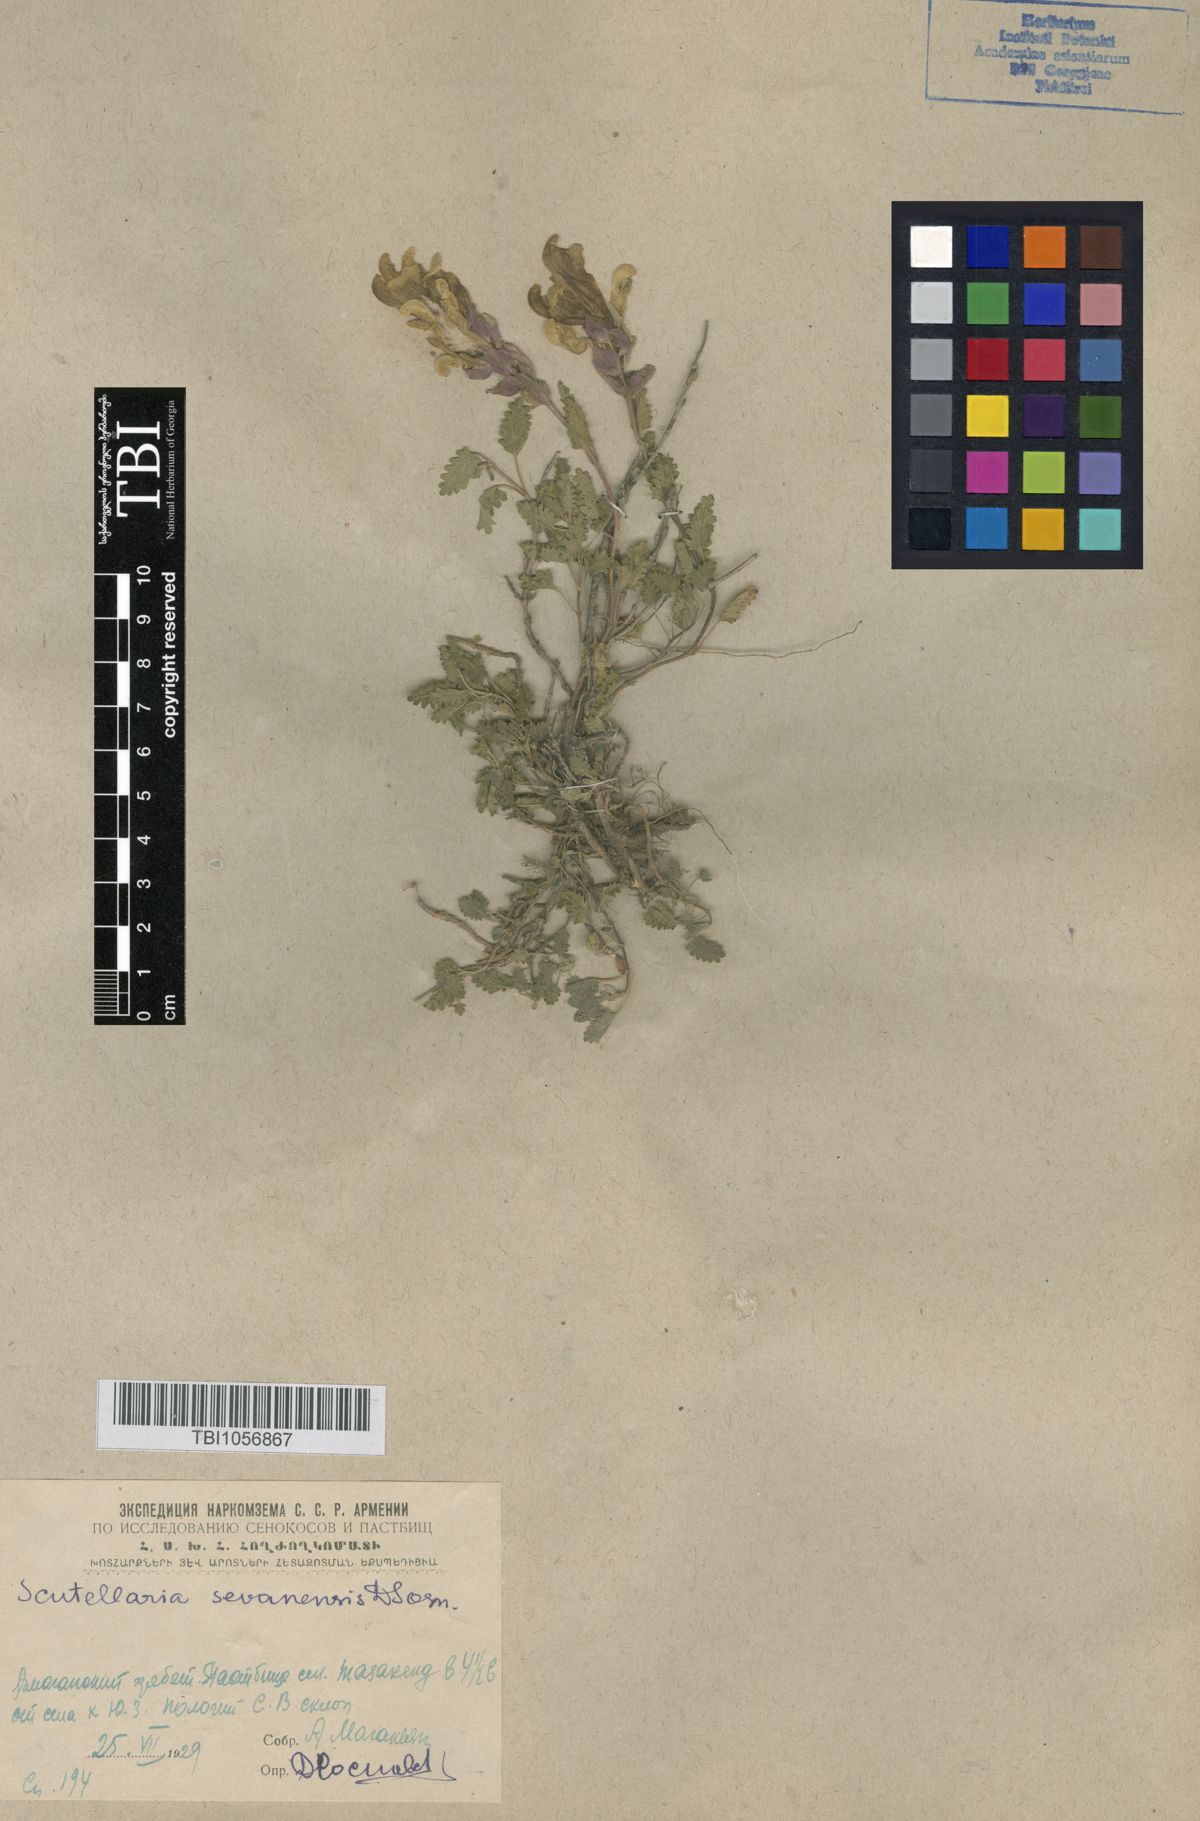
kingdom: Plantae
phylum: Tracheophyta
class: Magnoliopsida
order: Lamiales
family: Lamiaceae
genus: Scutellaria
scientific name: Scutellaria sevanensis
